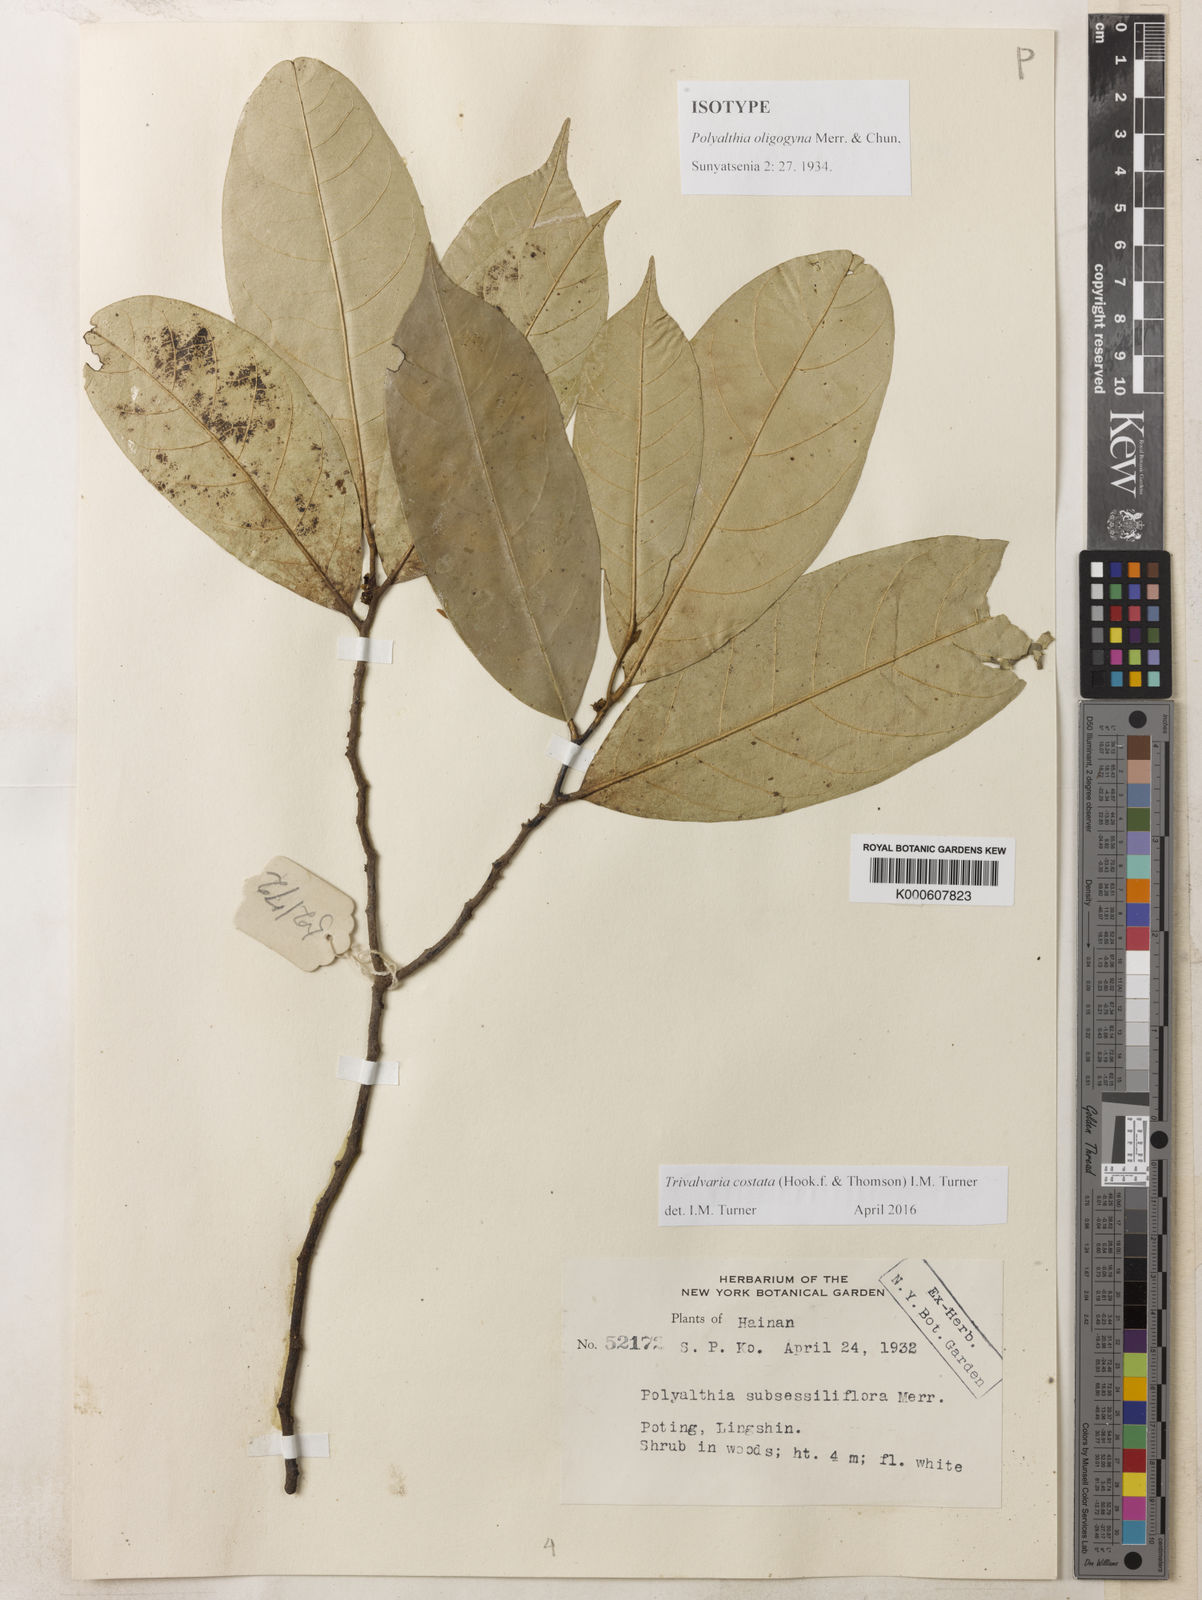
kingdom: Plantae
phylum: Tracheophyta
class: Magnoliopsida
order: Magnoliales
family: Annonaceae
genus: Trivalvaria
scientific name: Trivalvaria costata
